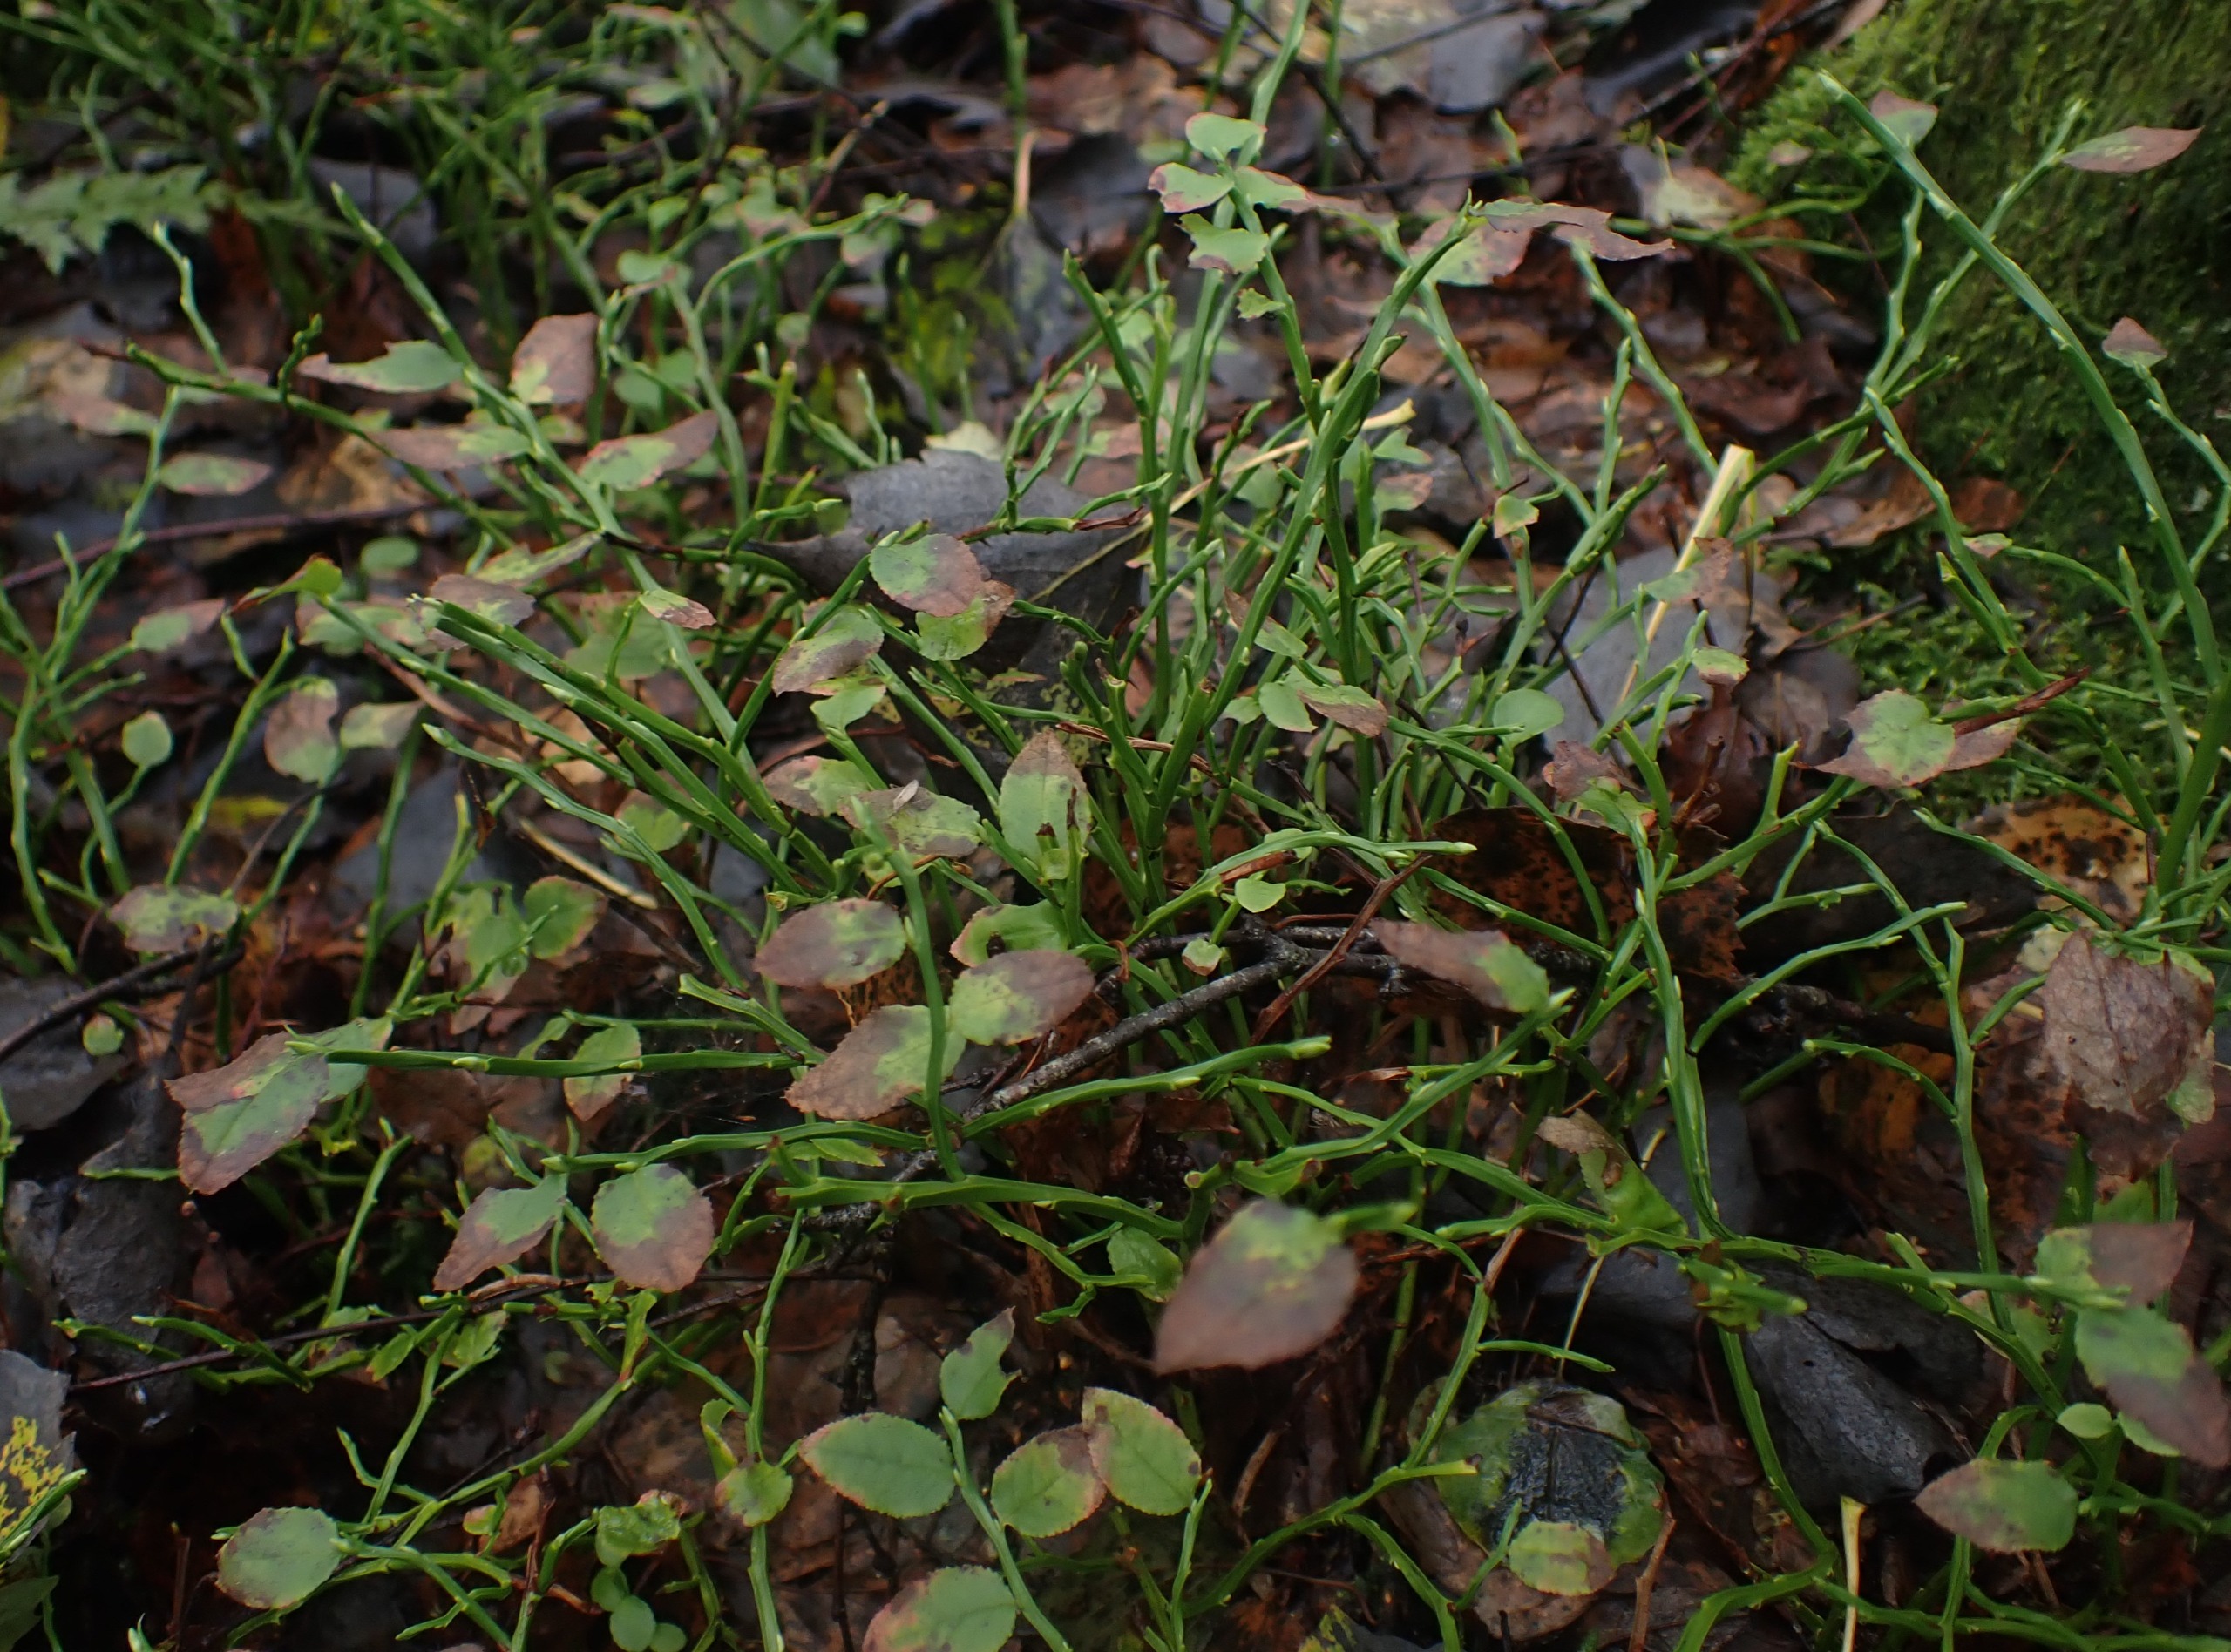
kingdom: Plantae
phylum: Tracheophyta
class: Magnoliopsida
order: Ericales
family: Ericaceae
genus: Vaccinium
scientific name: Vaccinium myrtillus
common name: Blåbær
